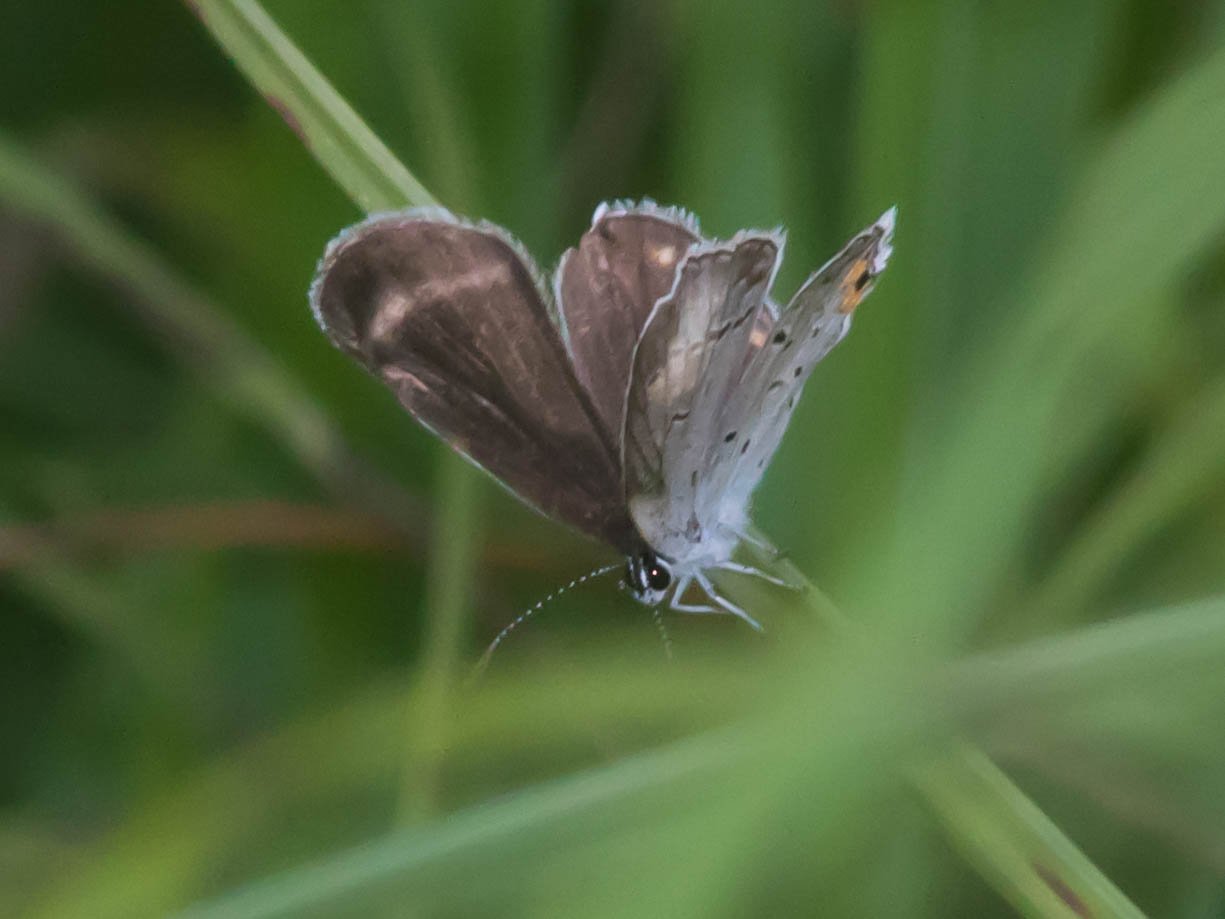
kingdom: Animalia
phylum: Arthropoda
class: Insecta
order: Lepidoptera
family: Lycaenidae
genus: Elkalyce
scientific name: Elkalyce comyntas
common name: Eastern Tailed-Blue
